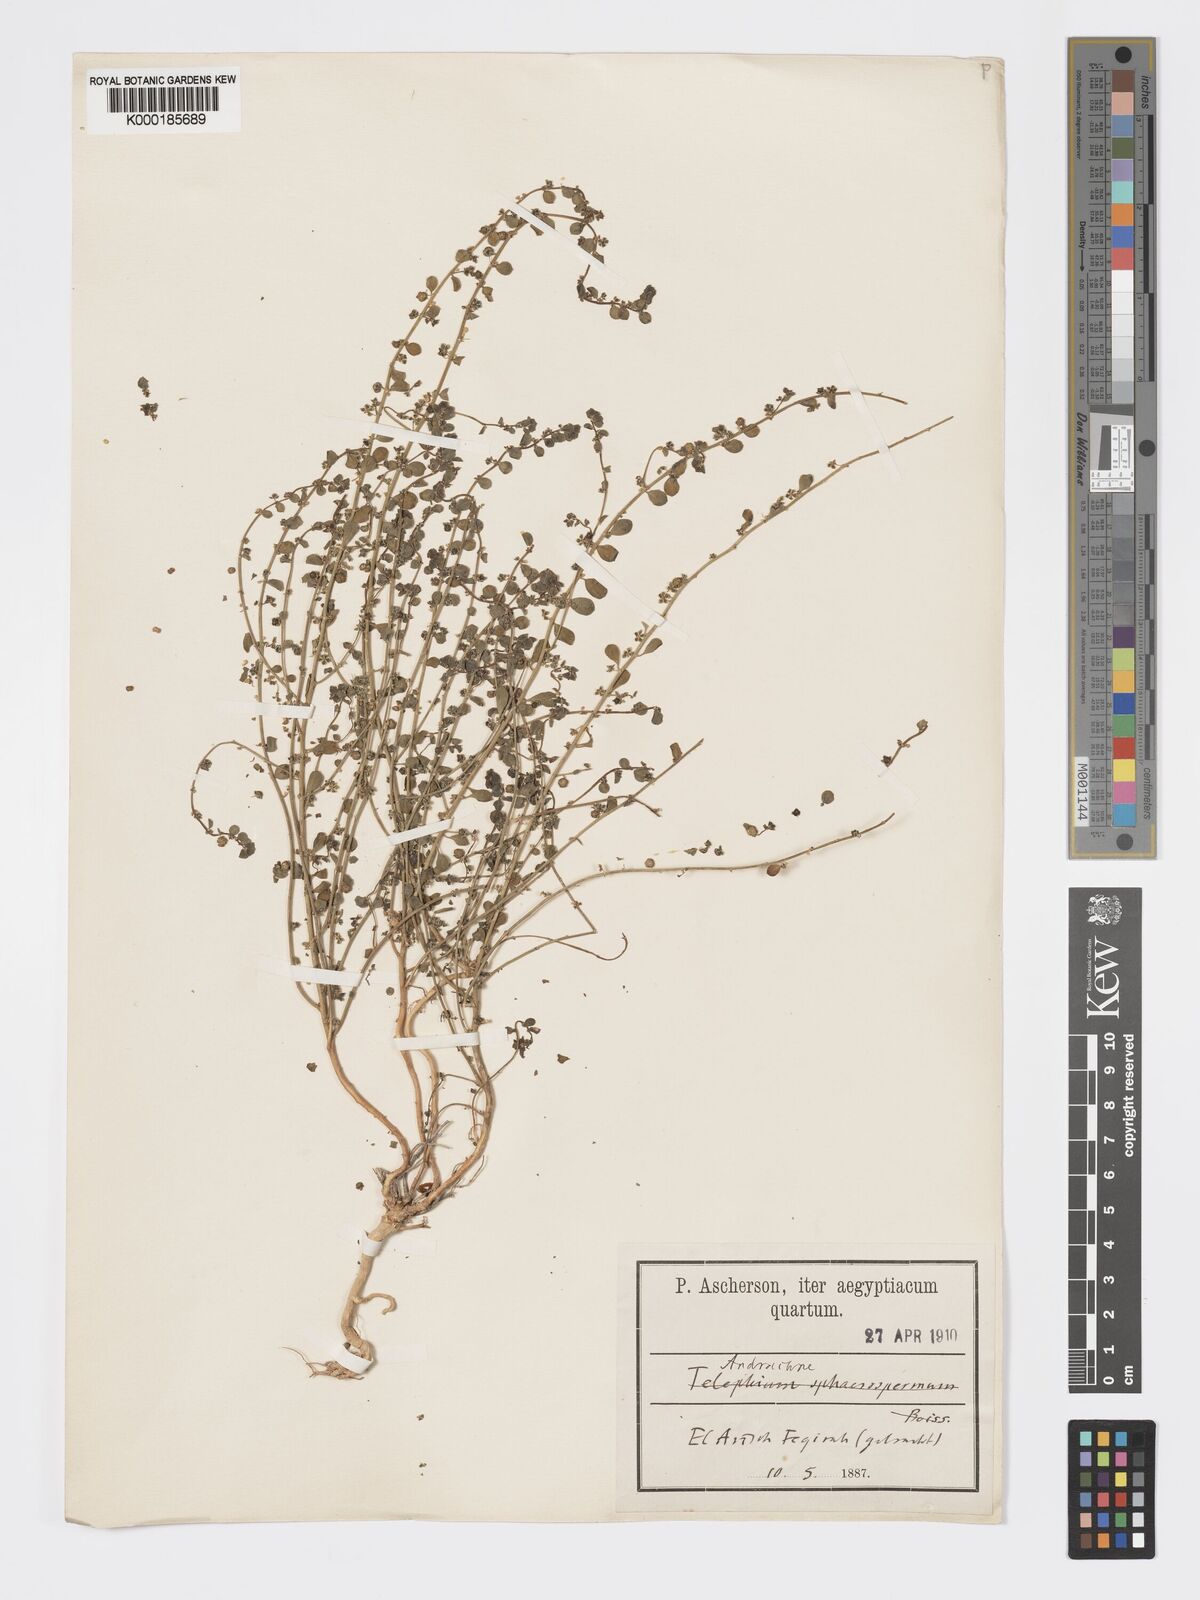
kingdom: Plantae
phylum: Tracheophyta
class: Magnoliopsida
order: Malpighiales
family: Phyllanthaceae
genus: Andrachne
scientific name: Andrachne telephioides
